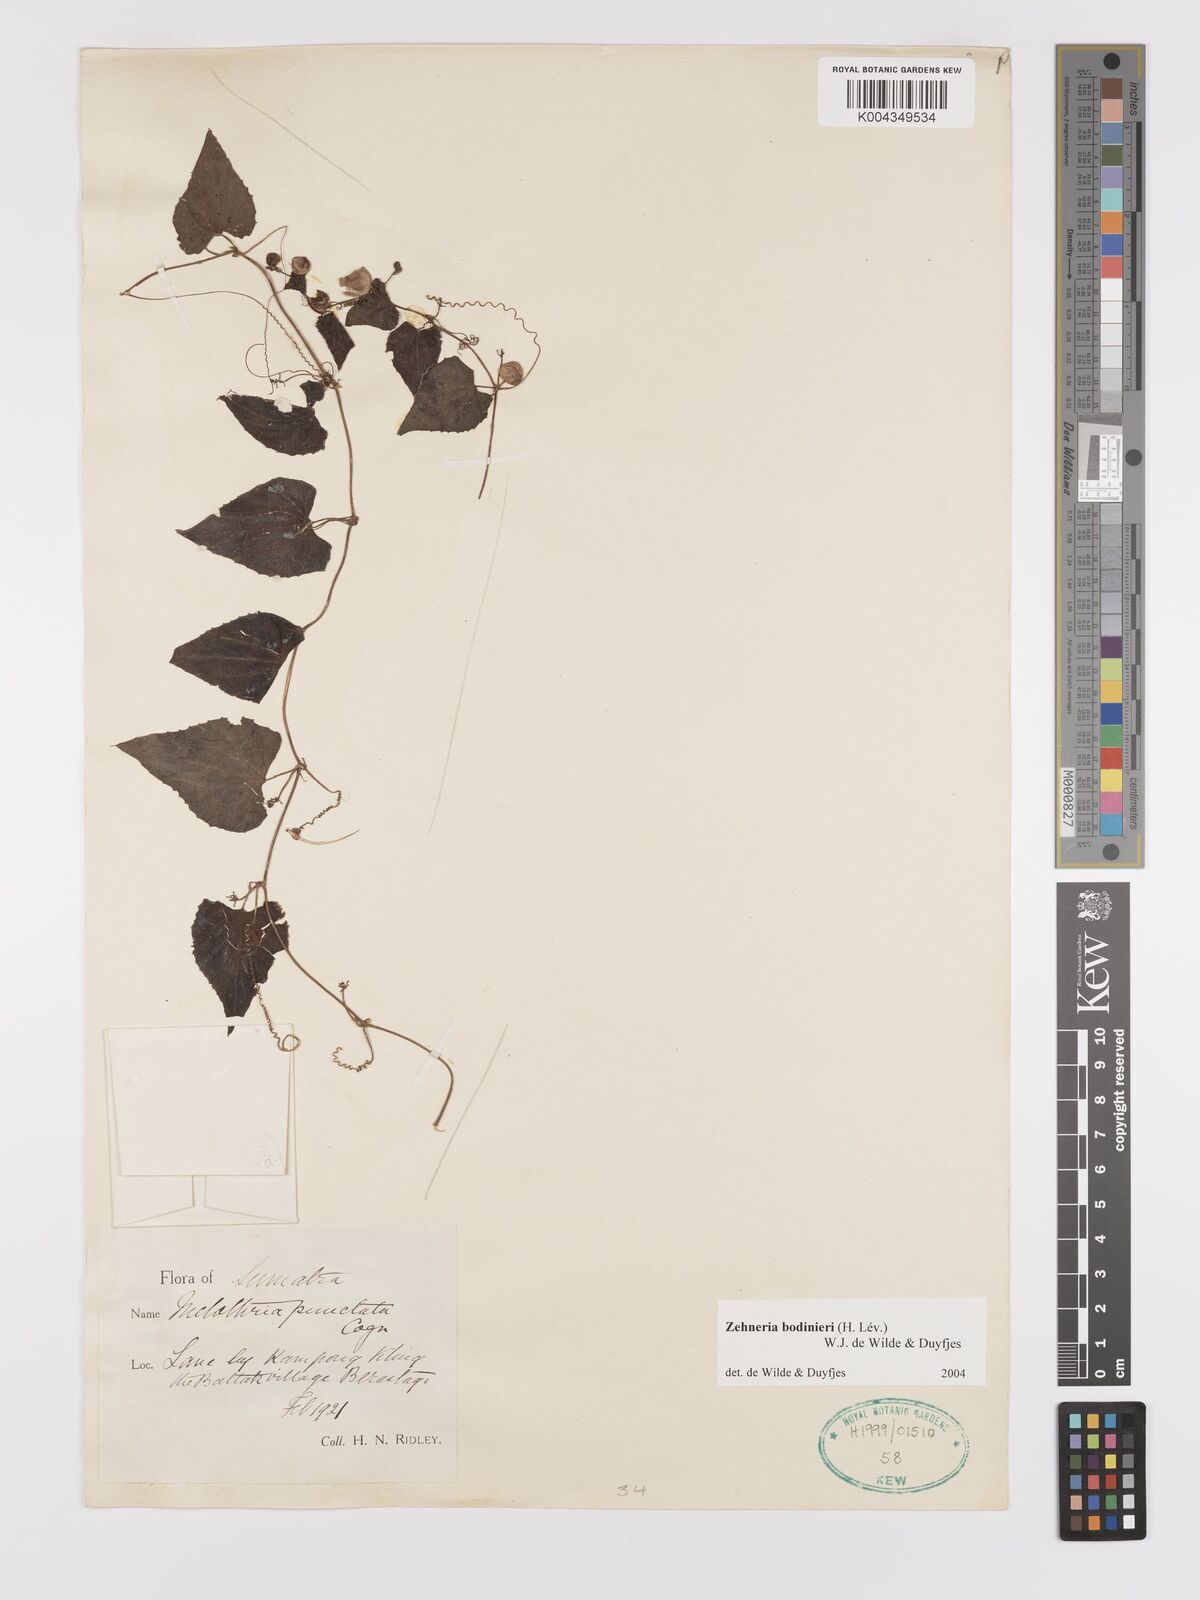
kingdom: Plantae
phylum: Tracheophyta
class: Magnoliopsida
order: Cucurbitales
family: Cucurbitaceae
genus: Zehneria
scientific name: Zehneria bodinieri
